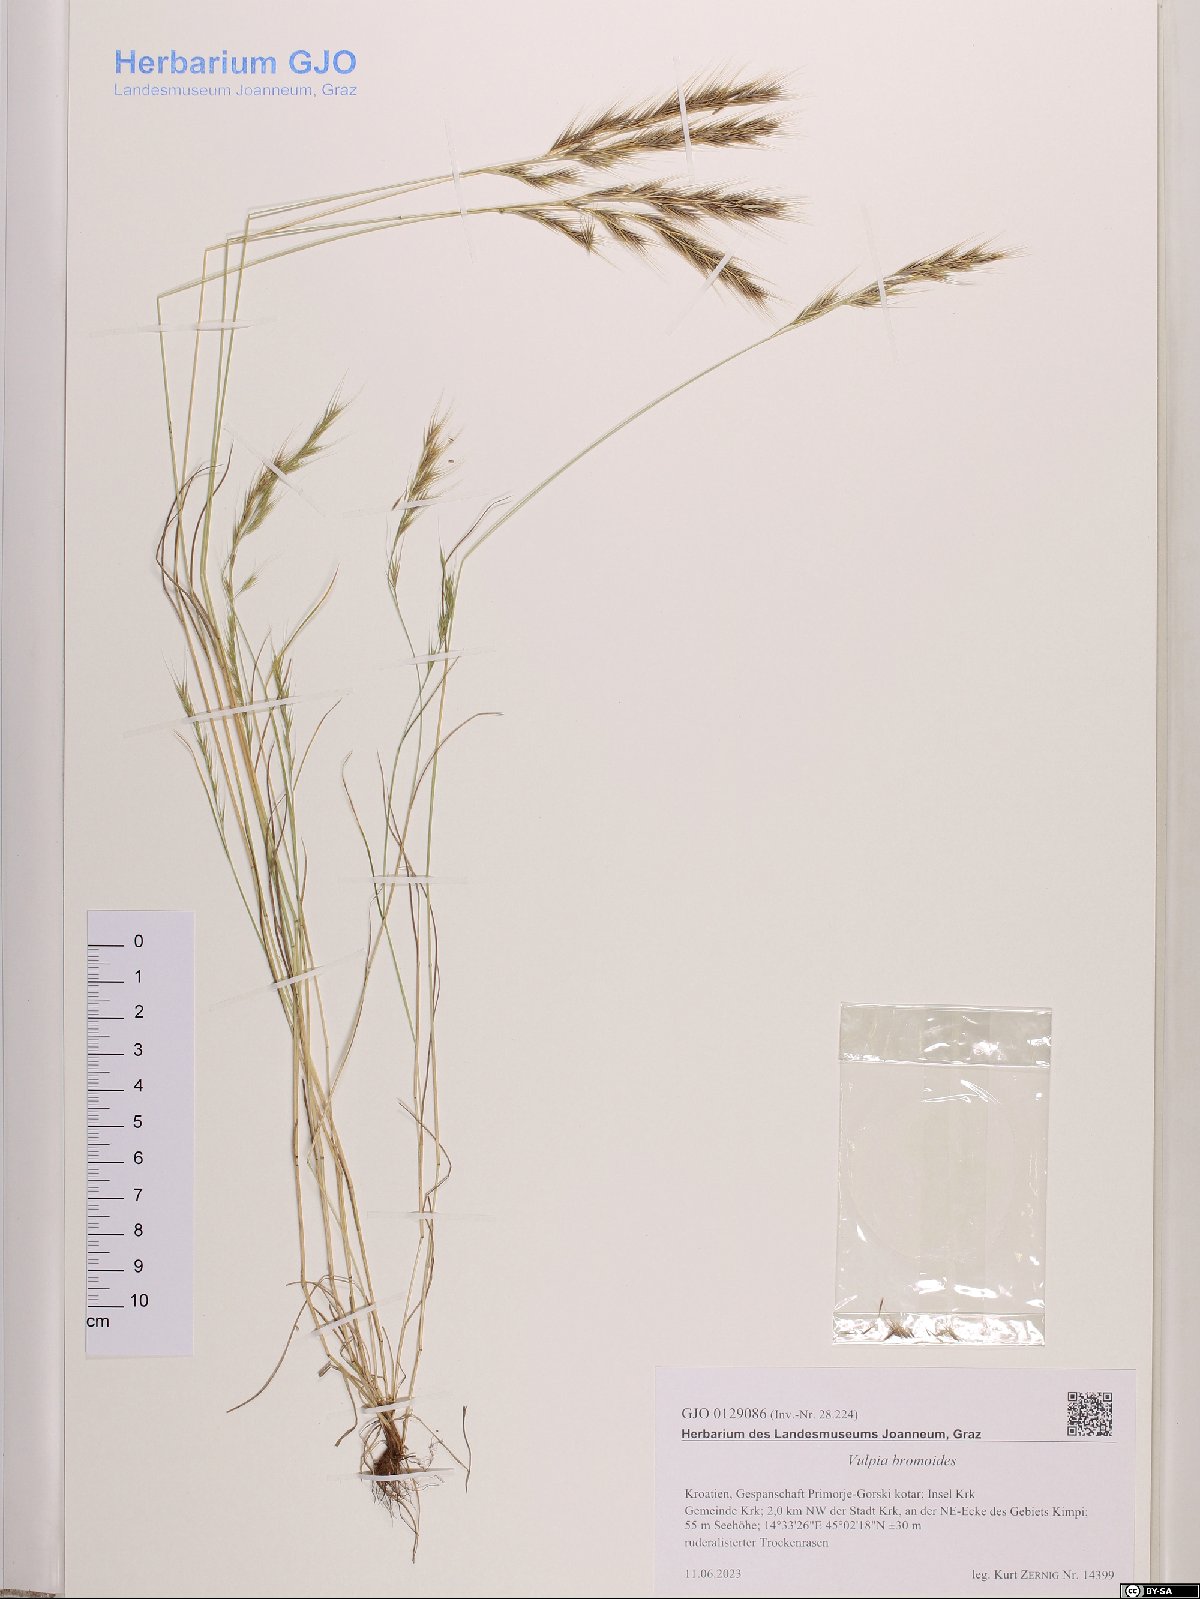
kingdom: Plantae
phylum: Tracheophyta
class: Liliopsida
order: Poales
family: Poaceae
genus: Festuca
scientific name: Festuca bromoides
